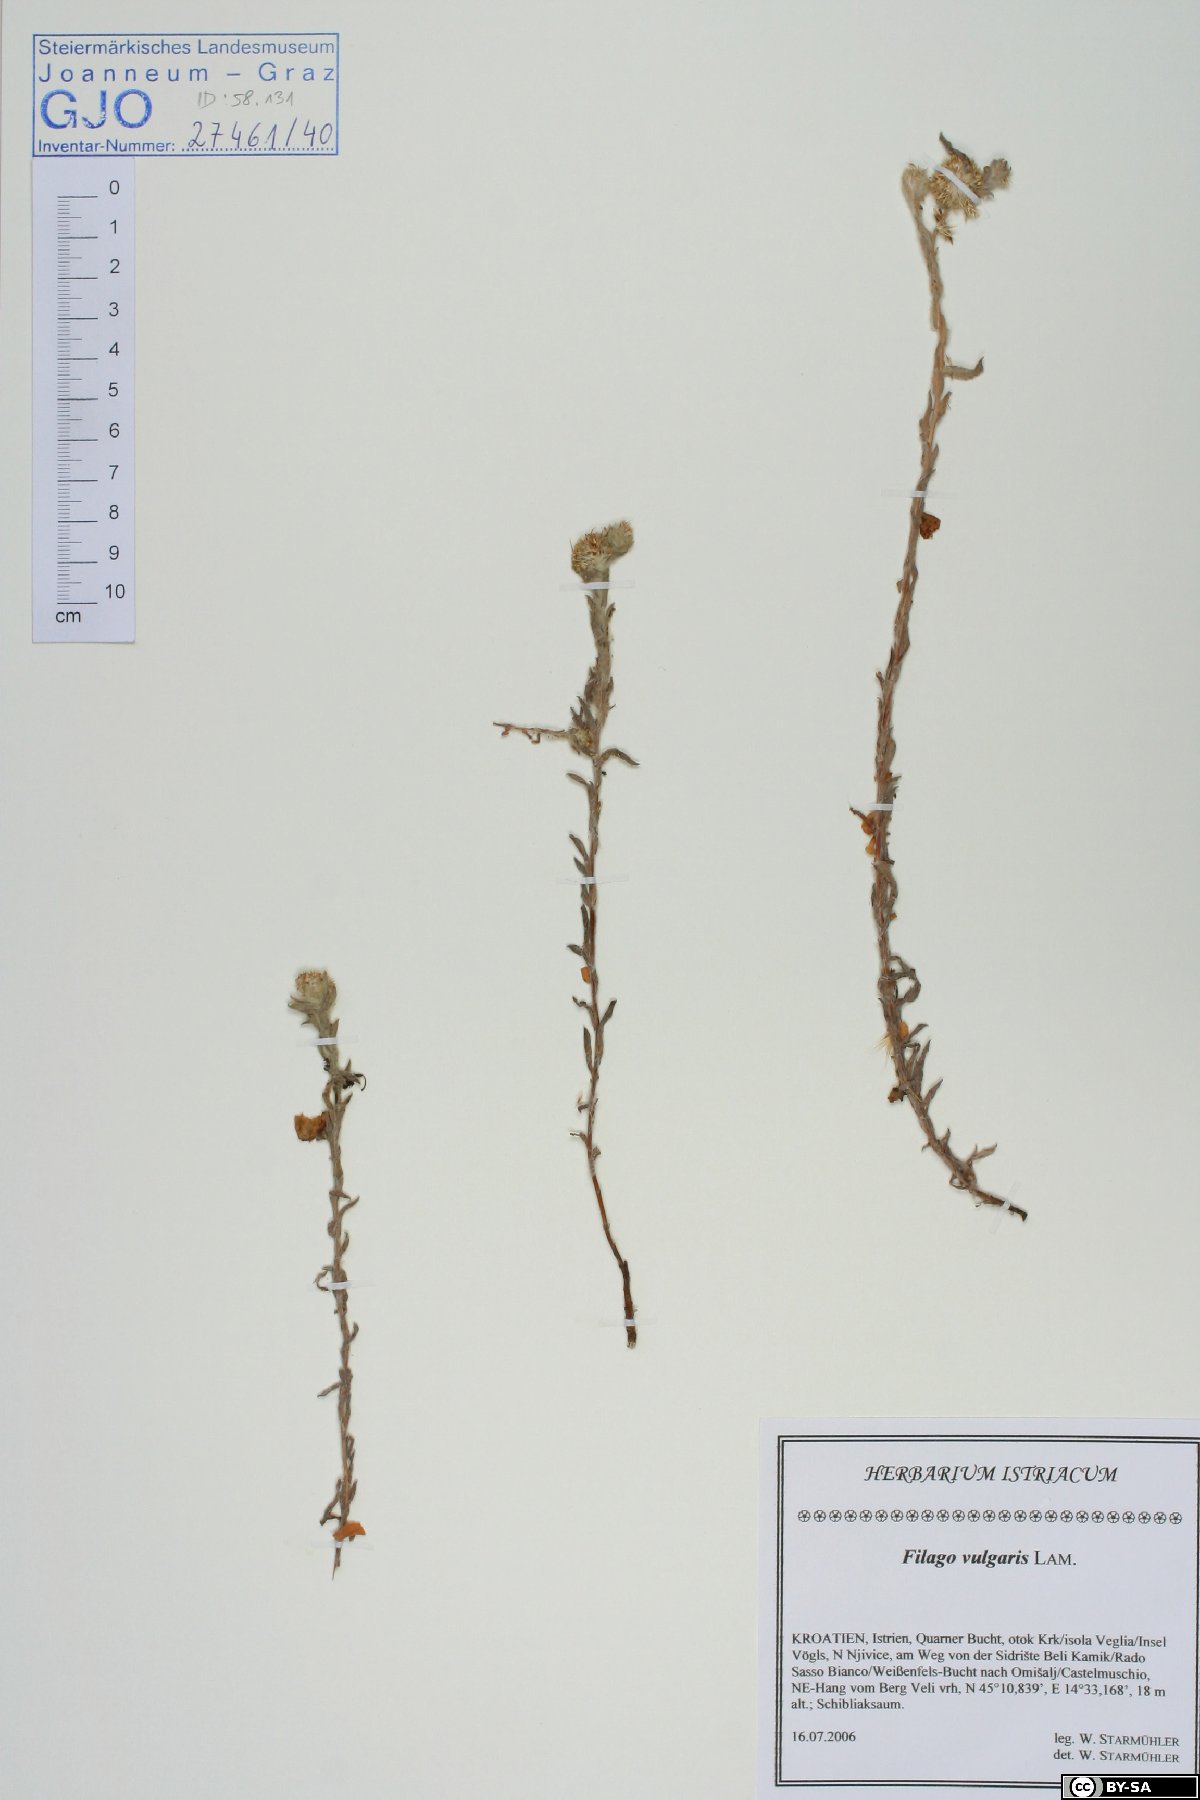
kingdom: Plantae
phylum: Tracheophyta
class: Magnoliopsida
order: Asterales
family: Asteraceae
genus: Filago
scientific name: Filago germanica
